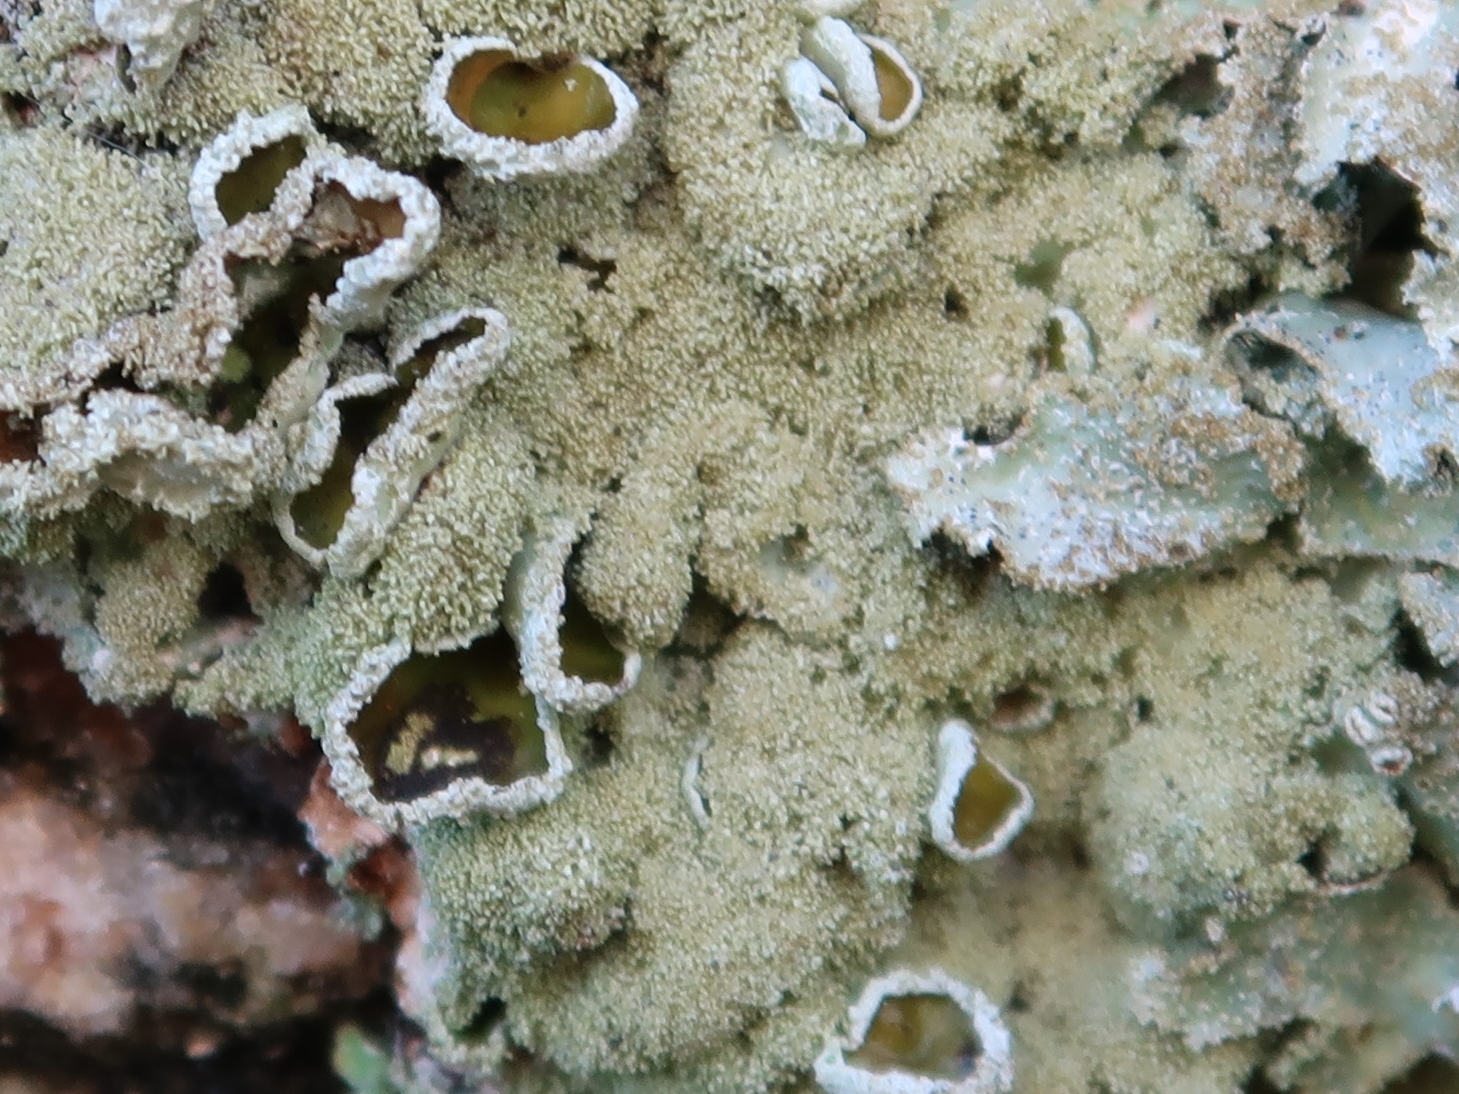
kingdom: Fungi
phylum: Ascomycota
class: Lecanoromycetes
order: Lecanorales
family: Parmeliaceae
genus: Parmelia
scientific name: Parmelia ernstiae
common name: rimstift-skållav
